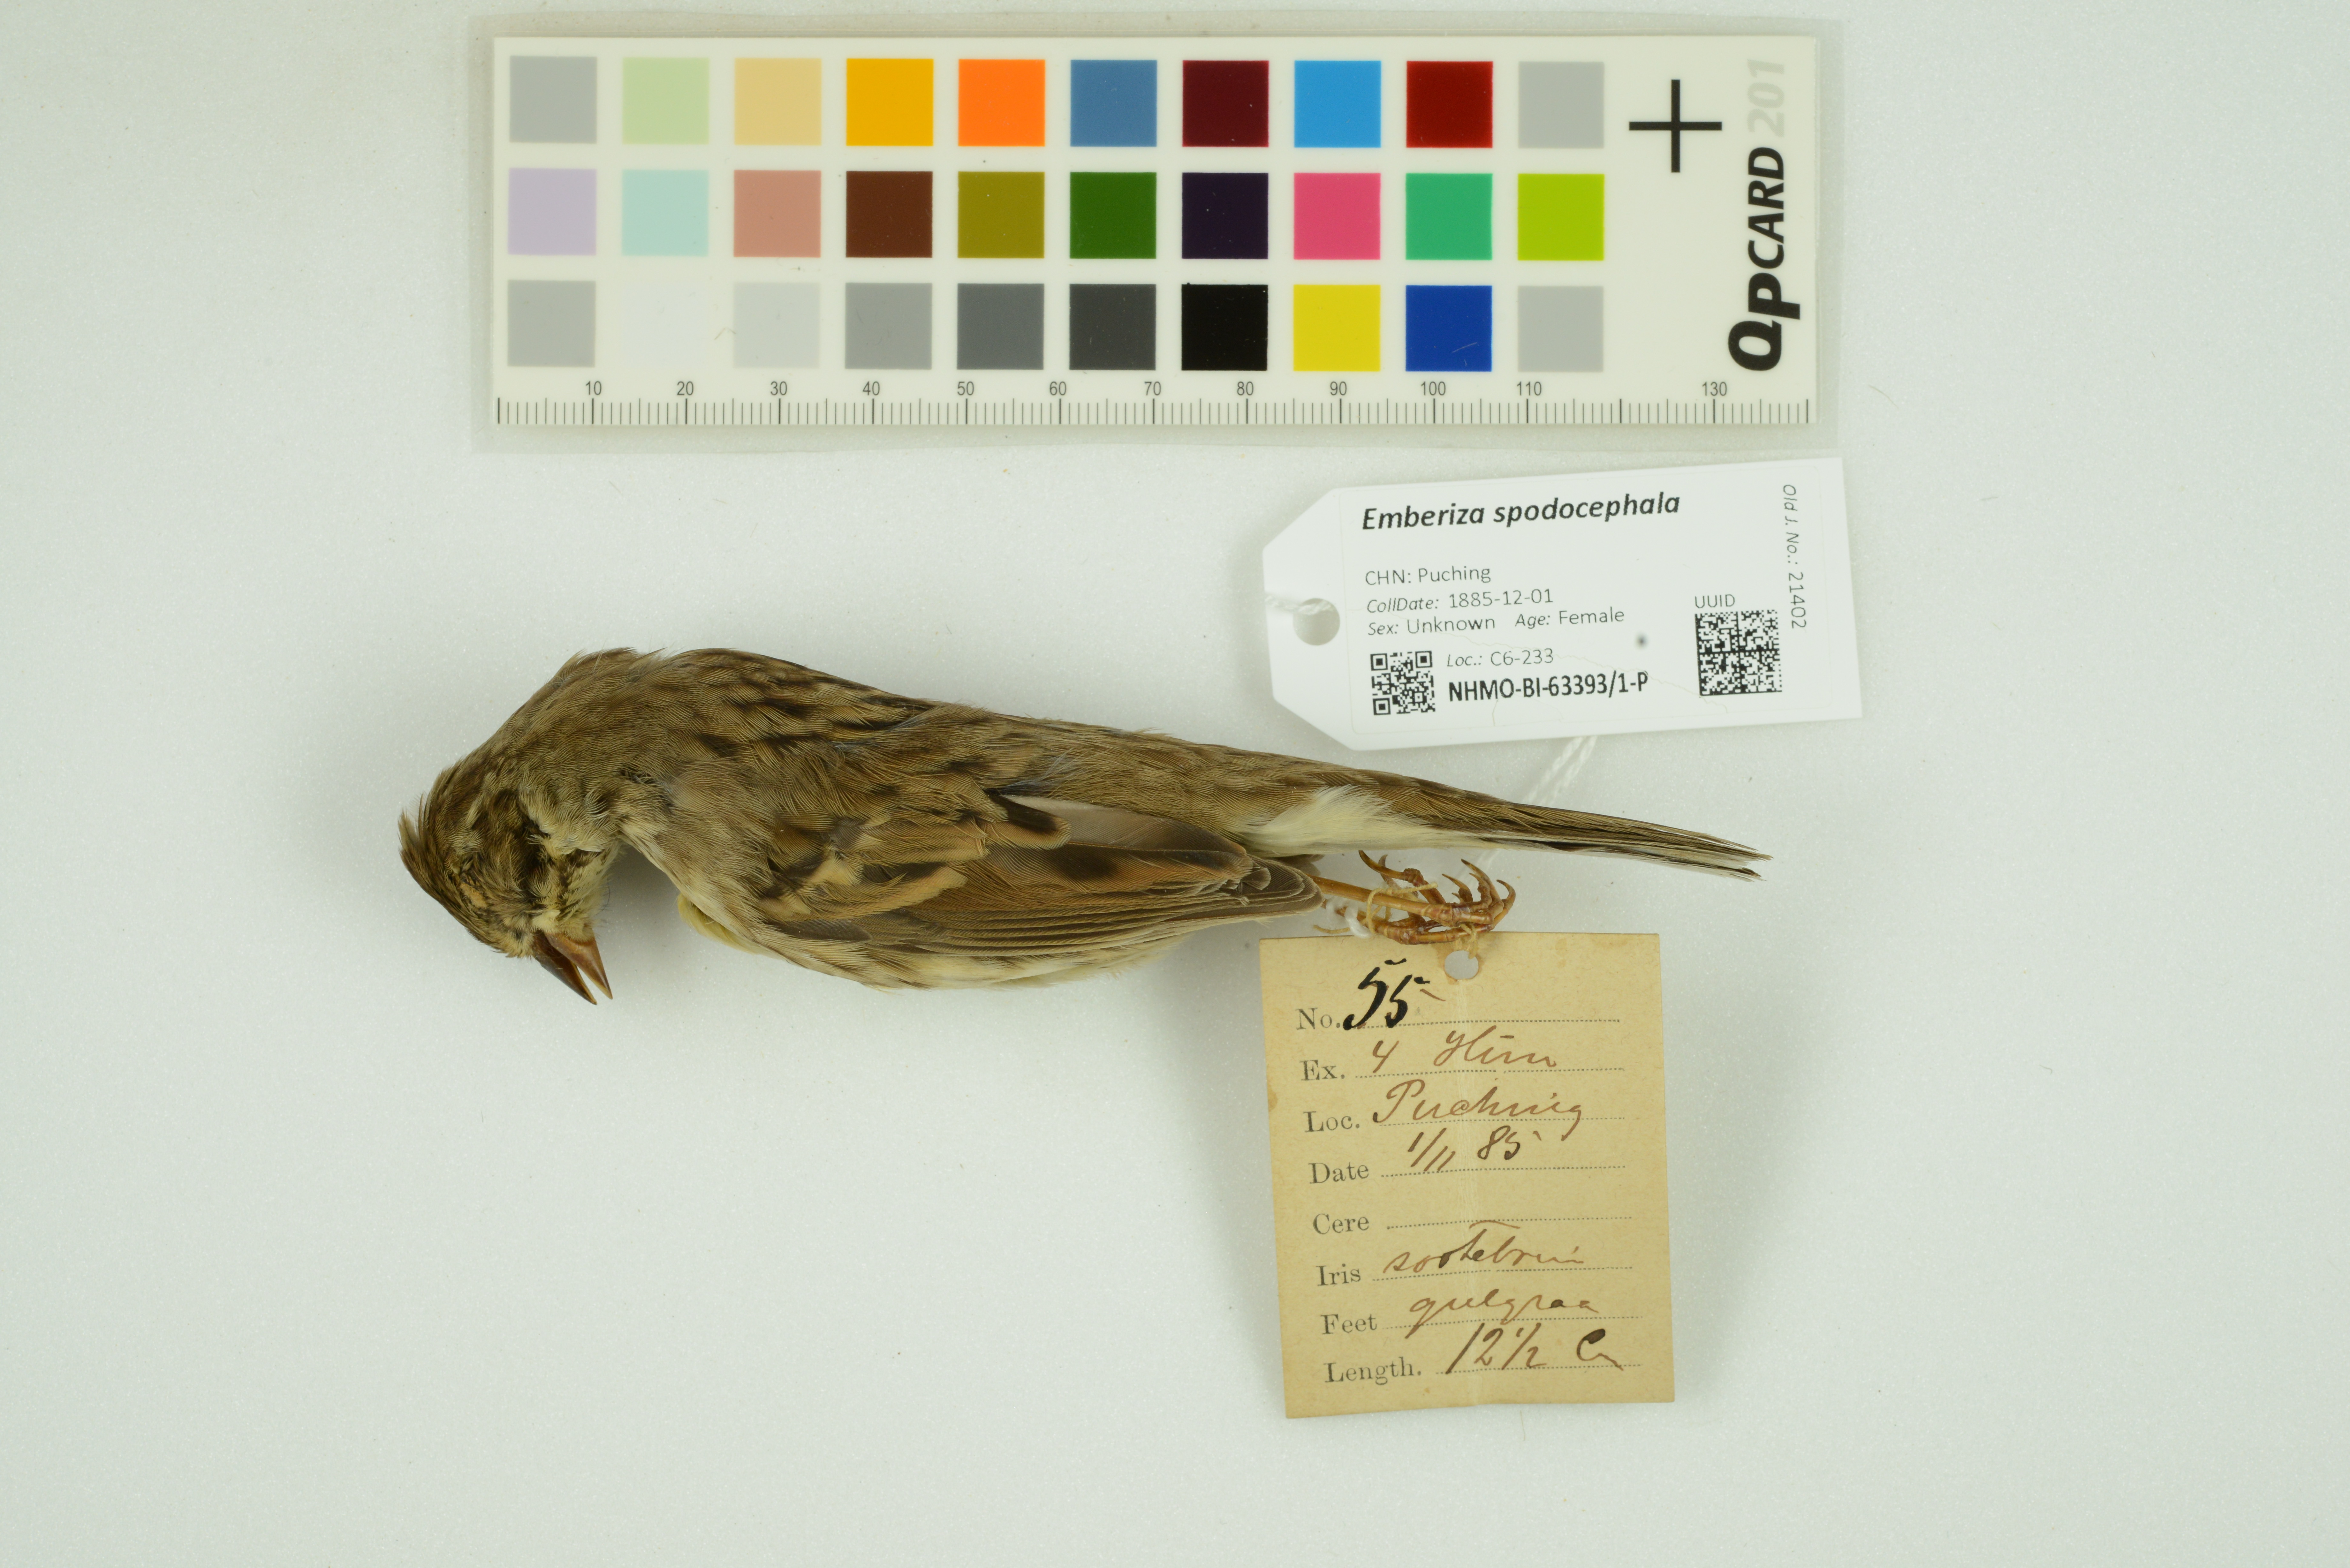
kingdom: Animalia
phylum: Chordata
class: Aves
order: Passeriformes
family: Emberizidae
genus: Emberiza
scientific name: Emberiza spodocephala
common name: Black-faced bunting
